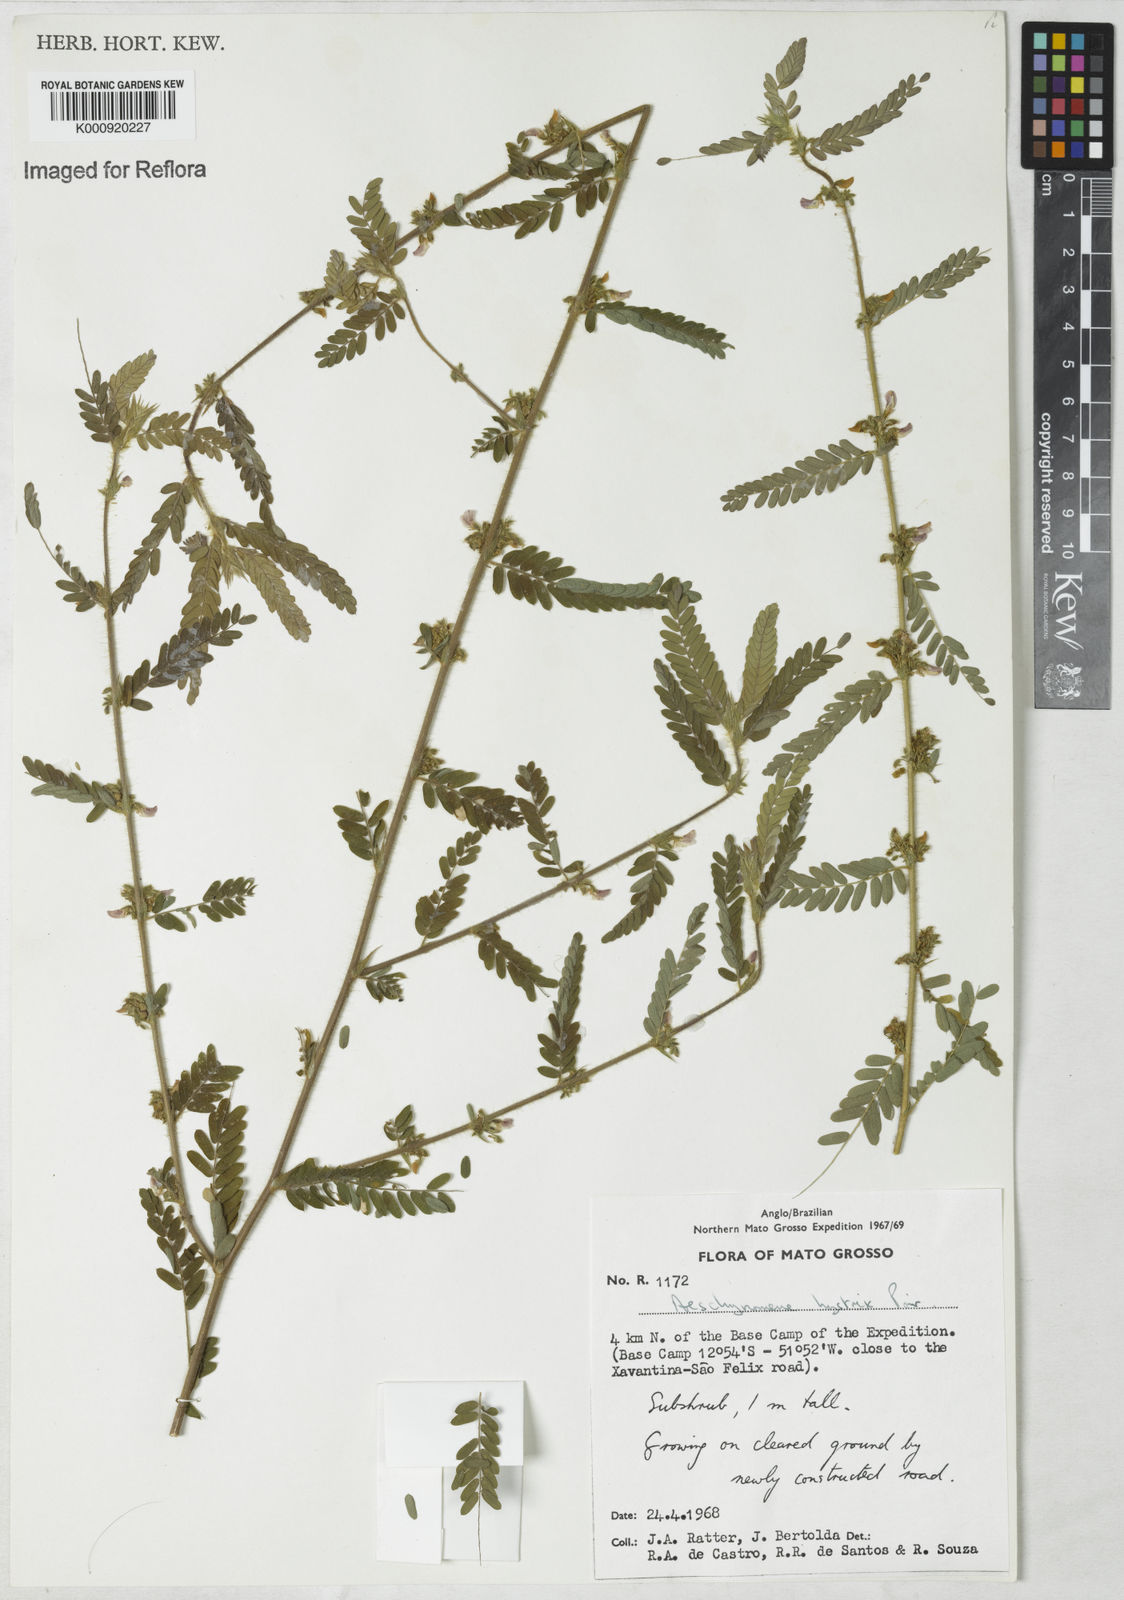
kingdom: Plantae
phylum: Tracheophyta
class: Magnoliopsida
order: Fabales
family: Fabaceae
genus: Ctenodon
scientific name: Ctenodon histrix
